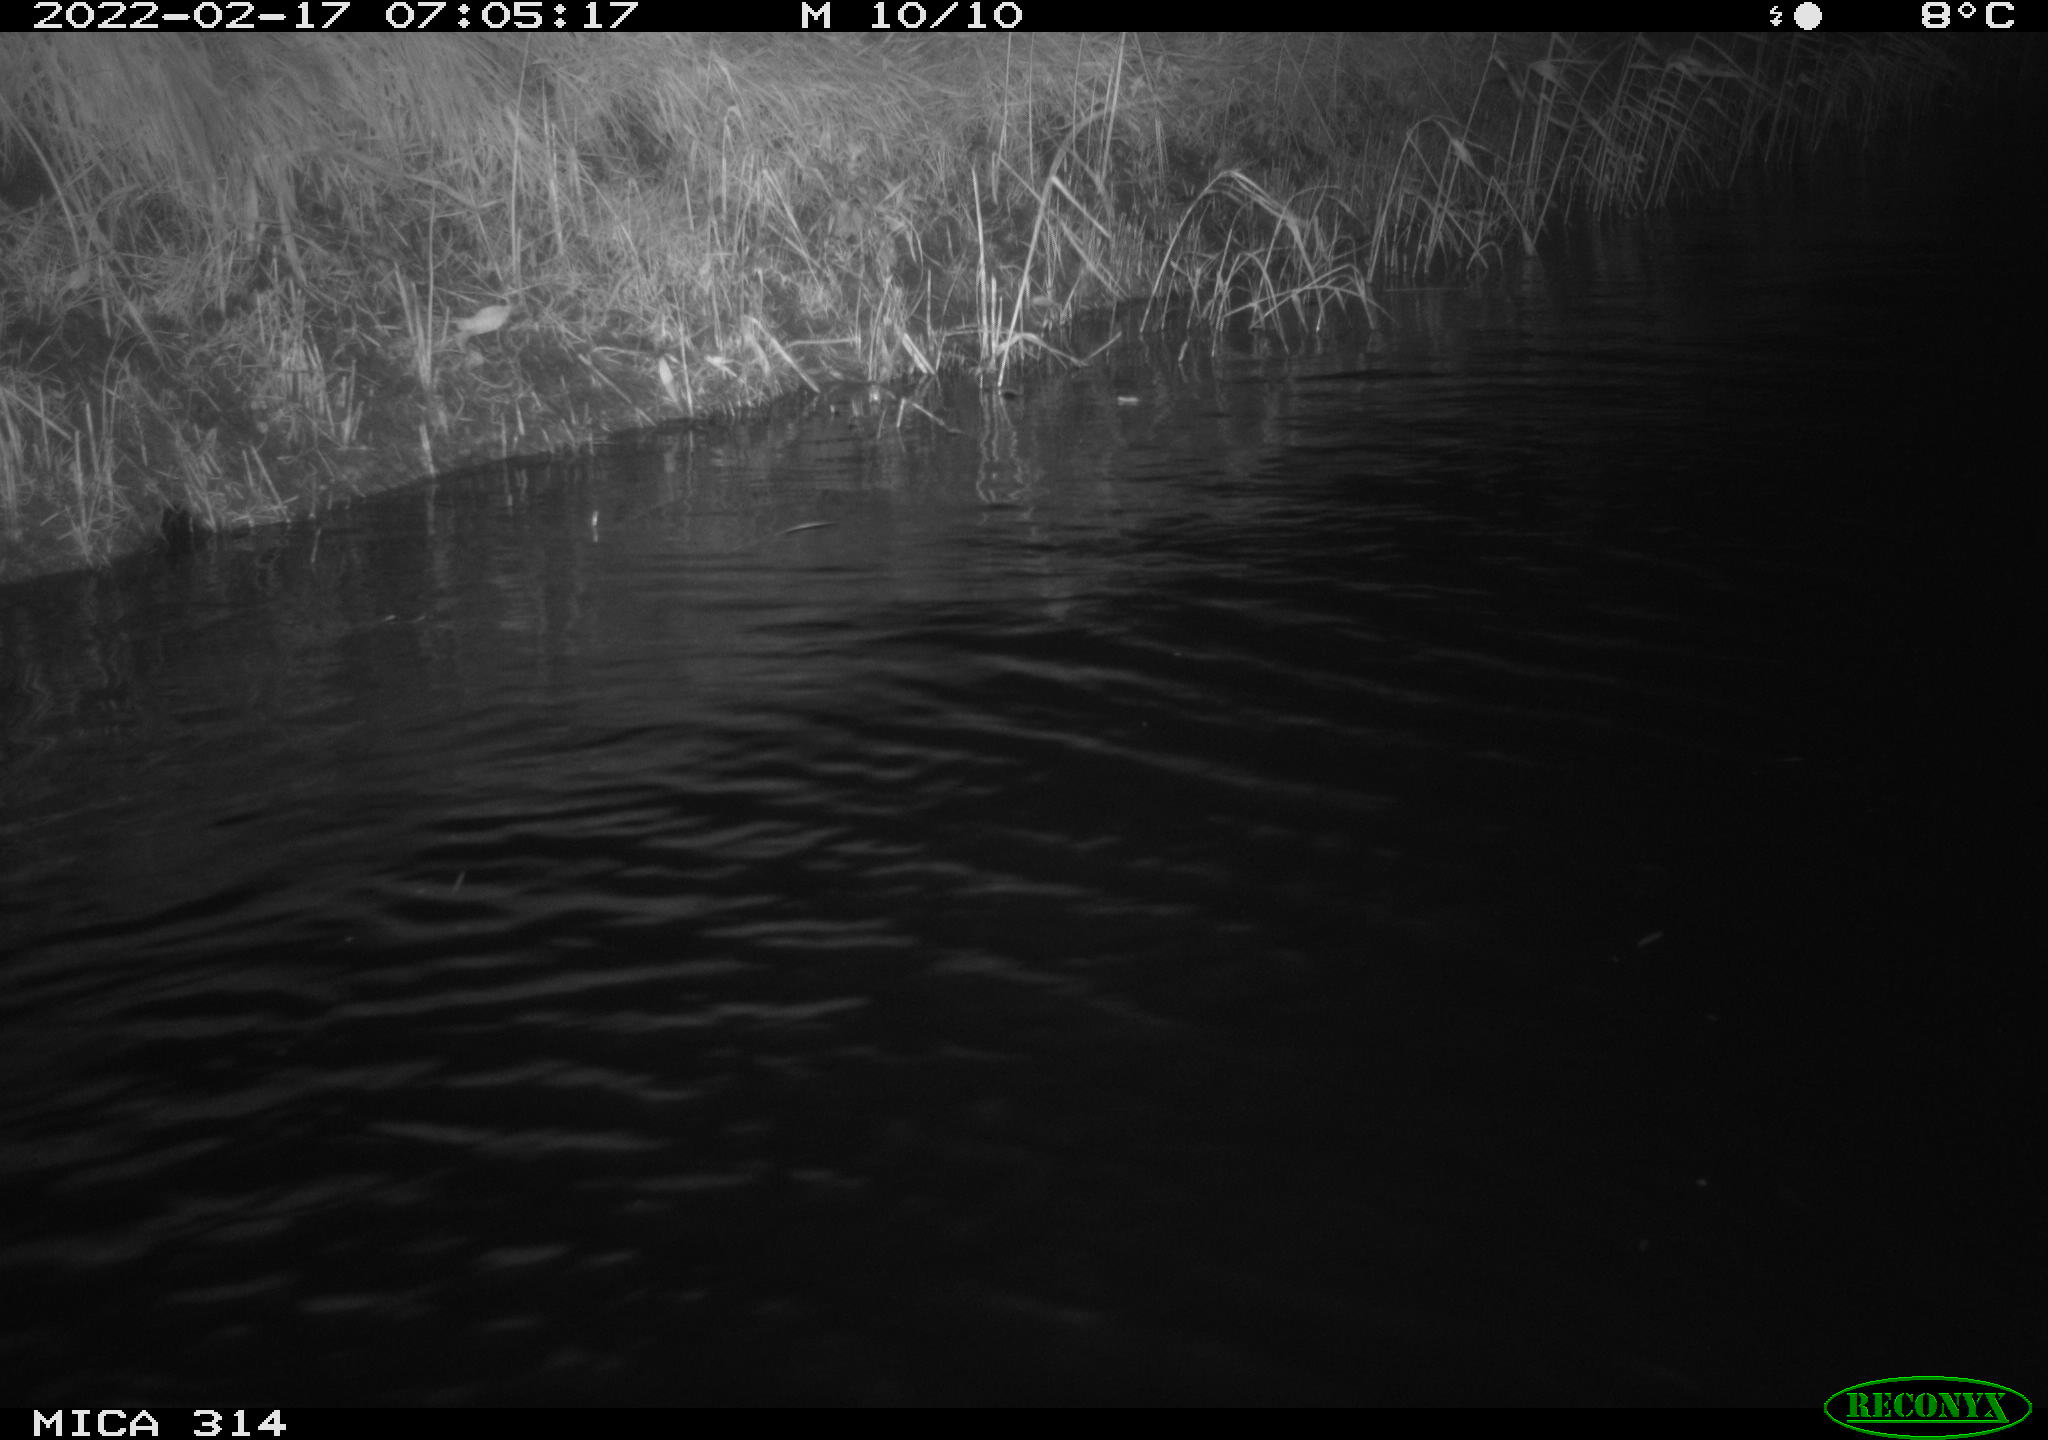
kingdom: Animalia
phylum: Chordata
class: Aves
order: Gruiformes
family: Rallidae
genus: Gallinula
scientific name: Gallinula chloropus
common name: Common moorhen
